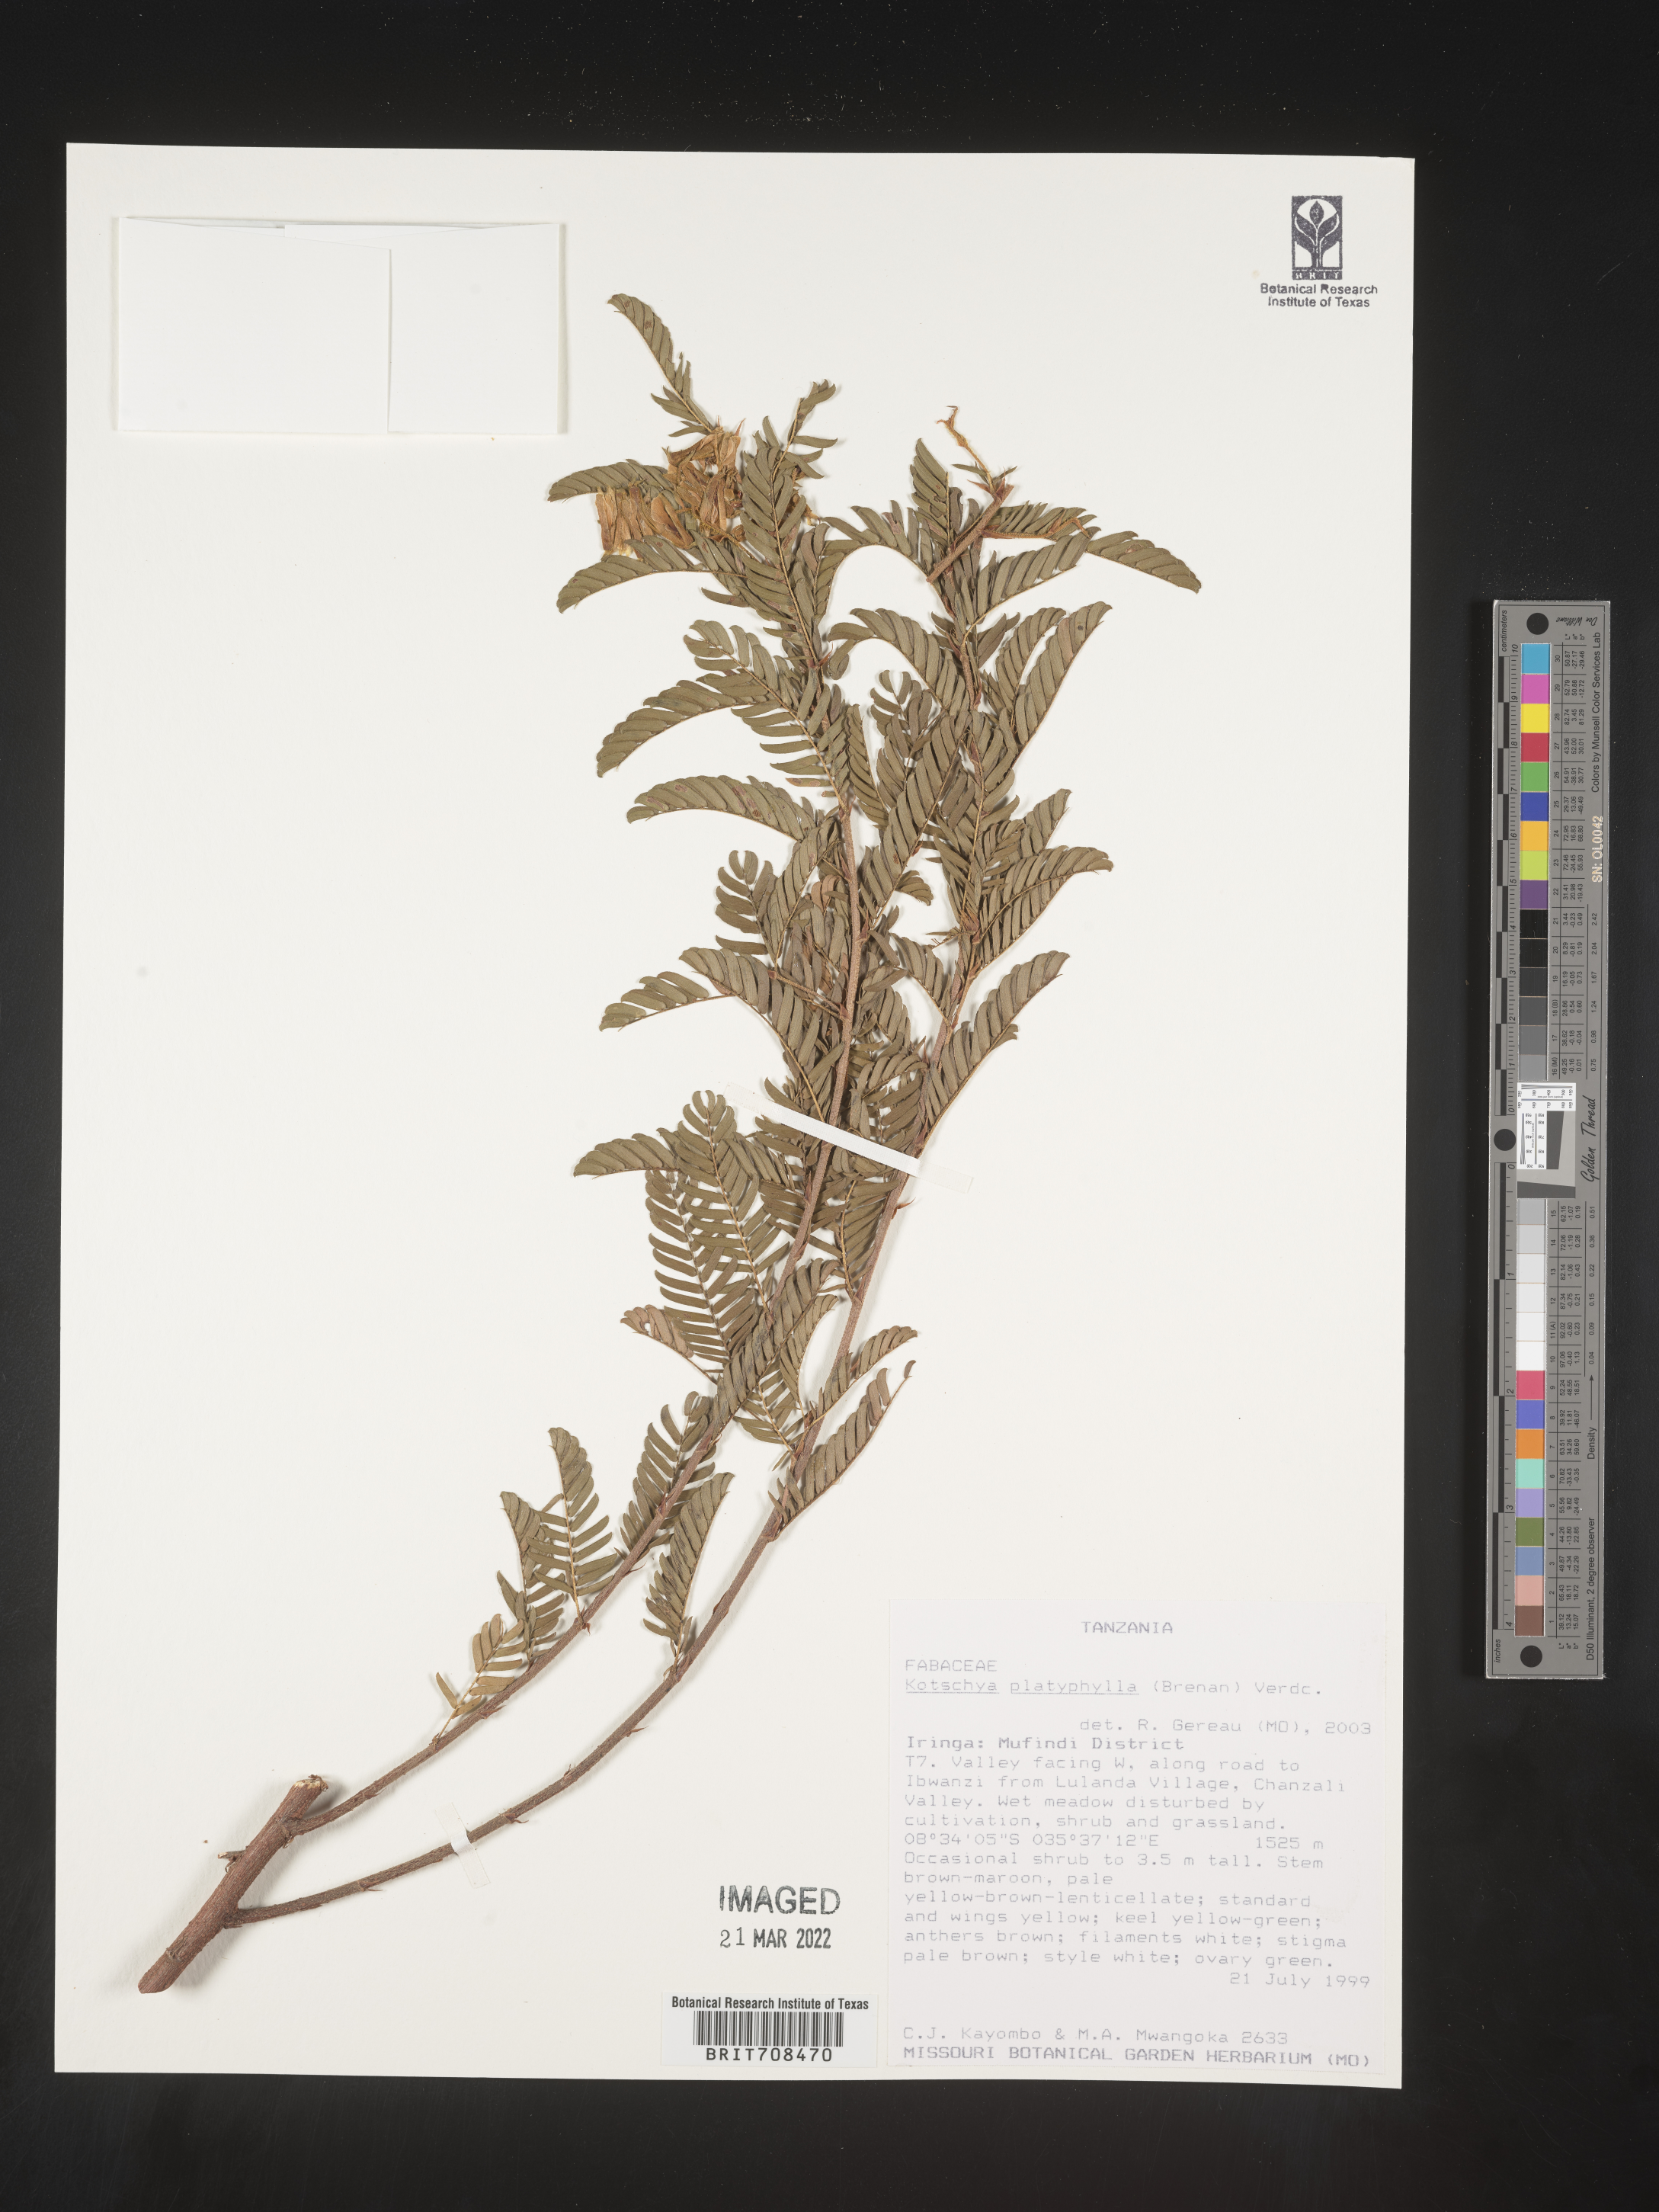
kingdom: Plantae
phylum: Tracheophyta
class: Magnoliopsida
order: Fabales
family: Fabaceae
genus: Kotschya
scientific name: Kotschya
